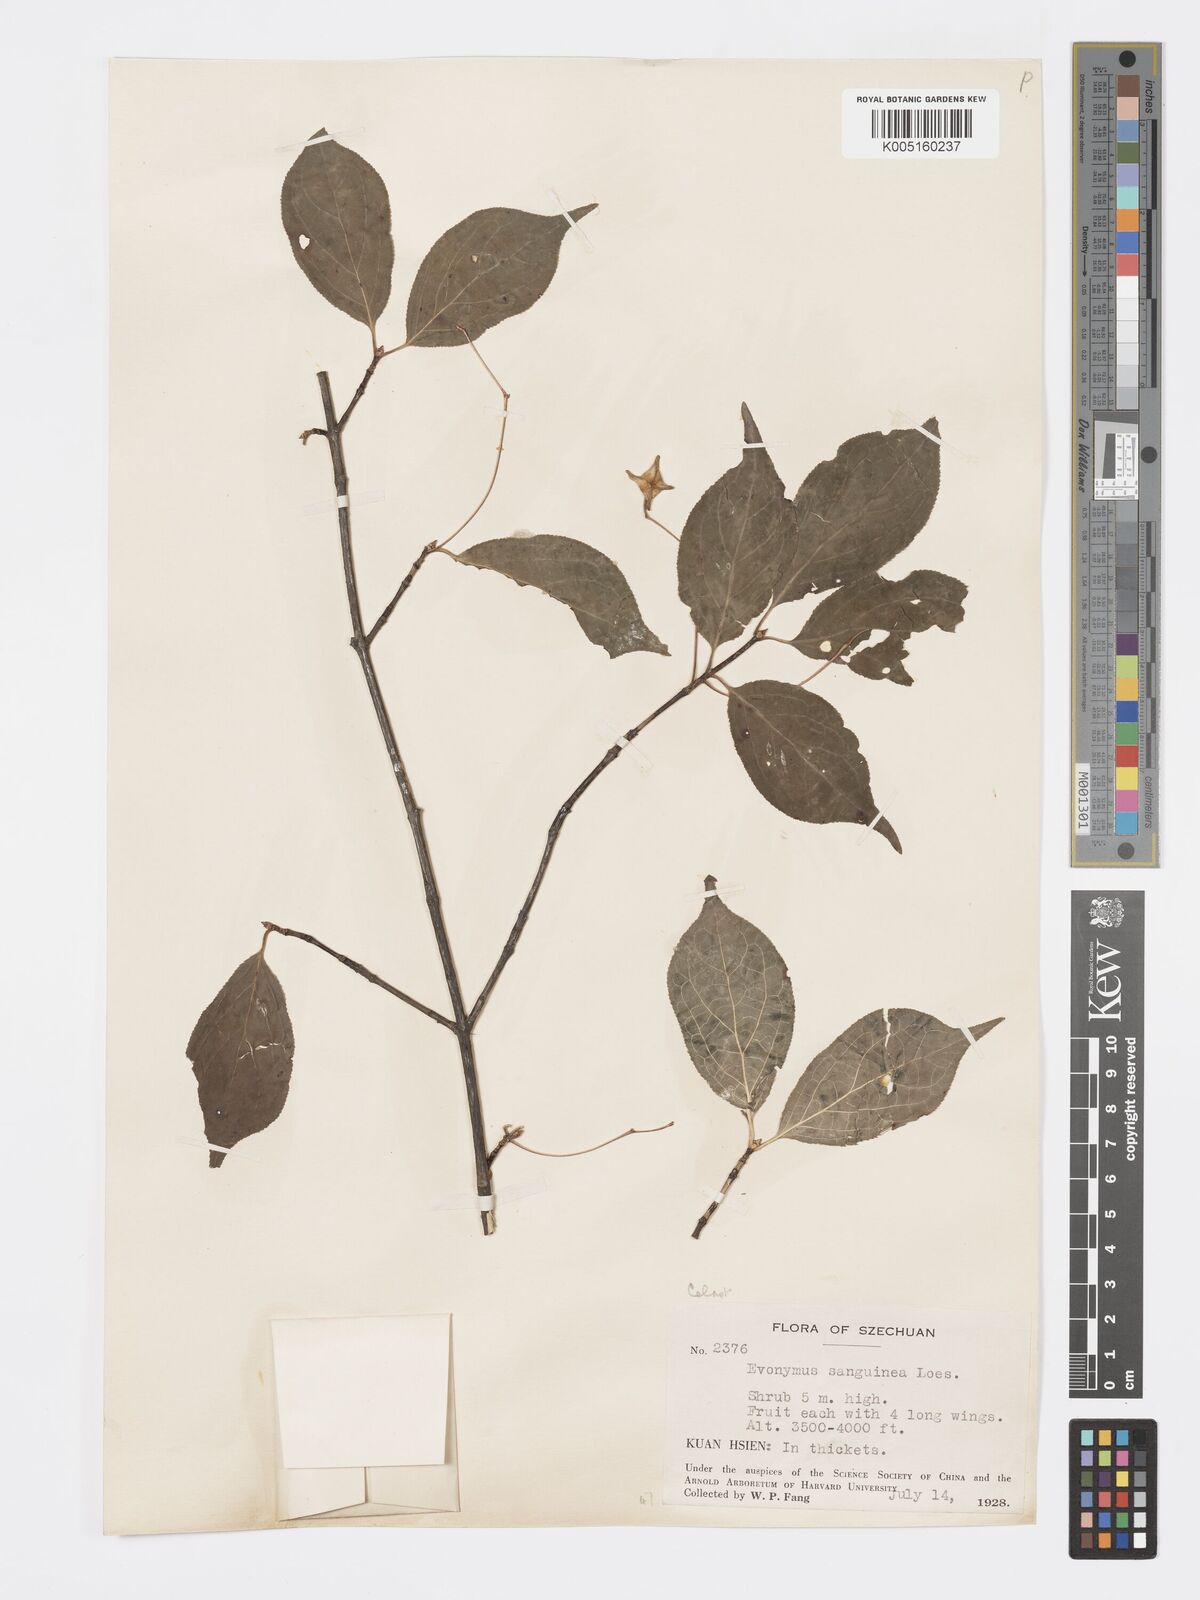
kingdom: Plantae
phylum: Tracheophyta
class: Magnoliopsida
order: Celastrales
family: Celastraceae
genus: Euonymus
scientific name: Euonymus giraldii
